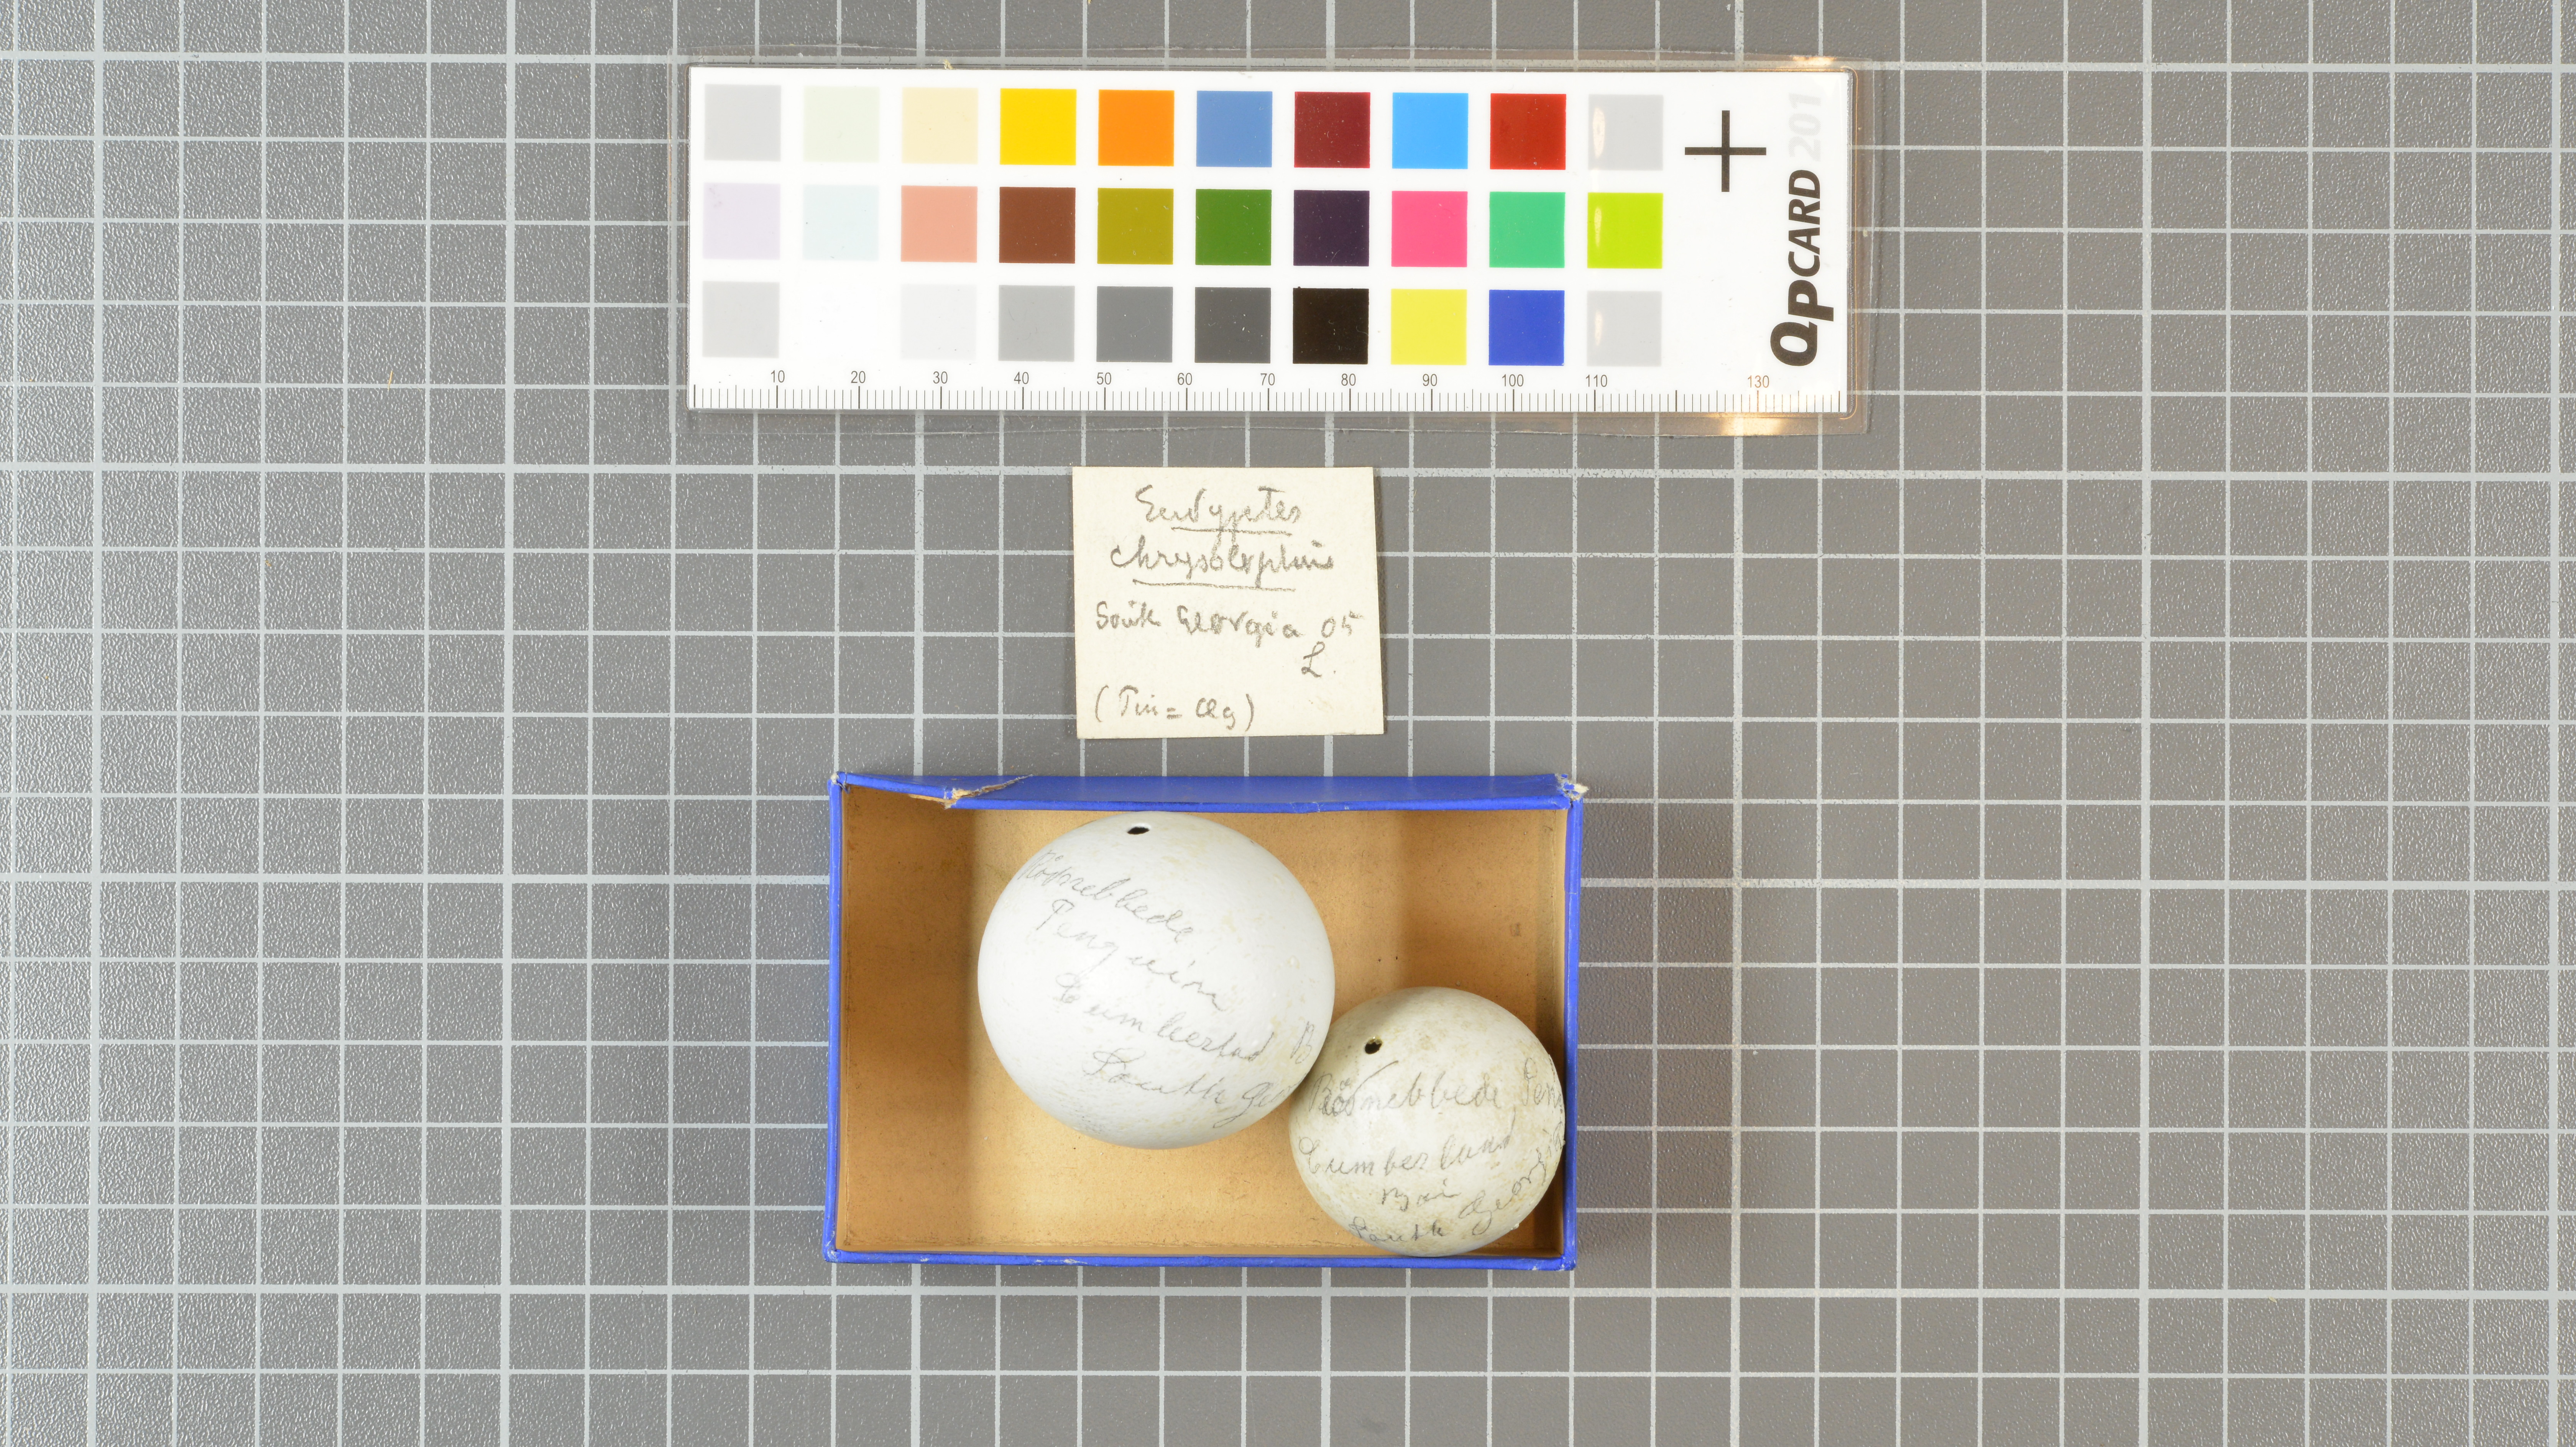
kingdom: Animalia
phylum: Chordata
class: Aves
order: Sphenisciformes
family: Spheniscidae
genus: Eudyptes
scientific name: Eudyptes chrysolophus
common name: Macaroni penguin
